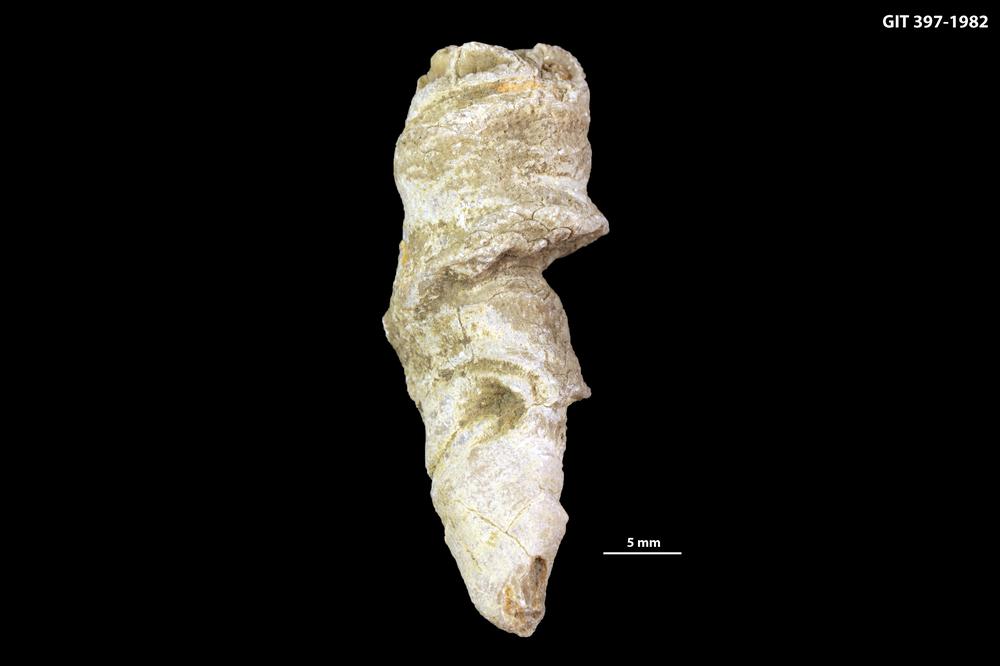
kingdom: Animalia
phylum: Cnidaria
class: Anthozoa
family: Cystiphyllidae
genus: Microplasma
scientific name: Microplasma
